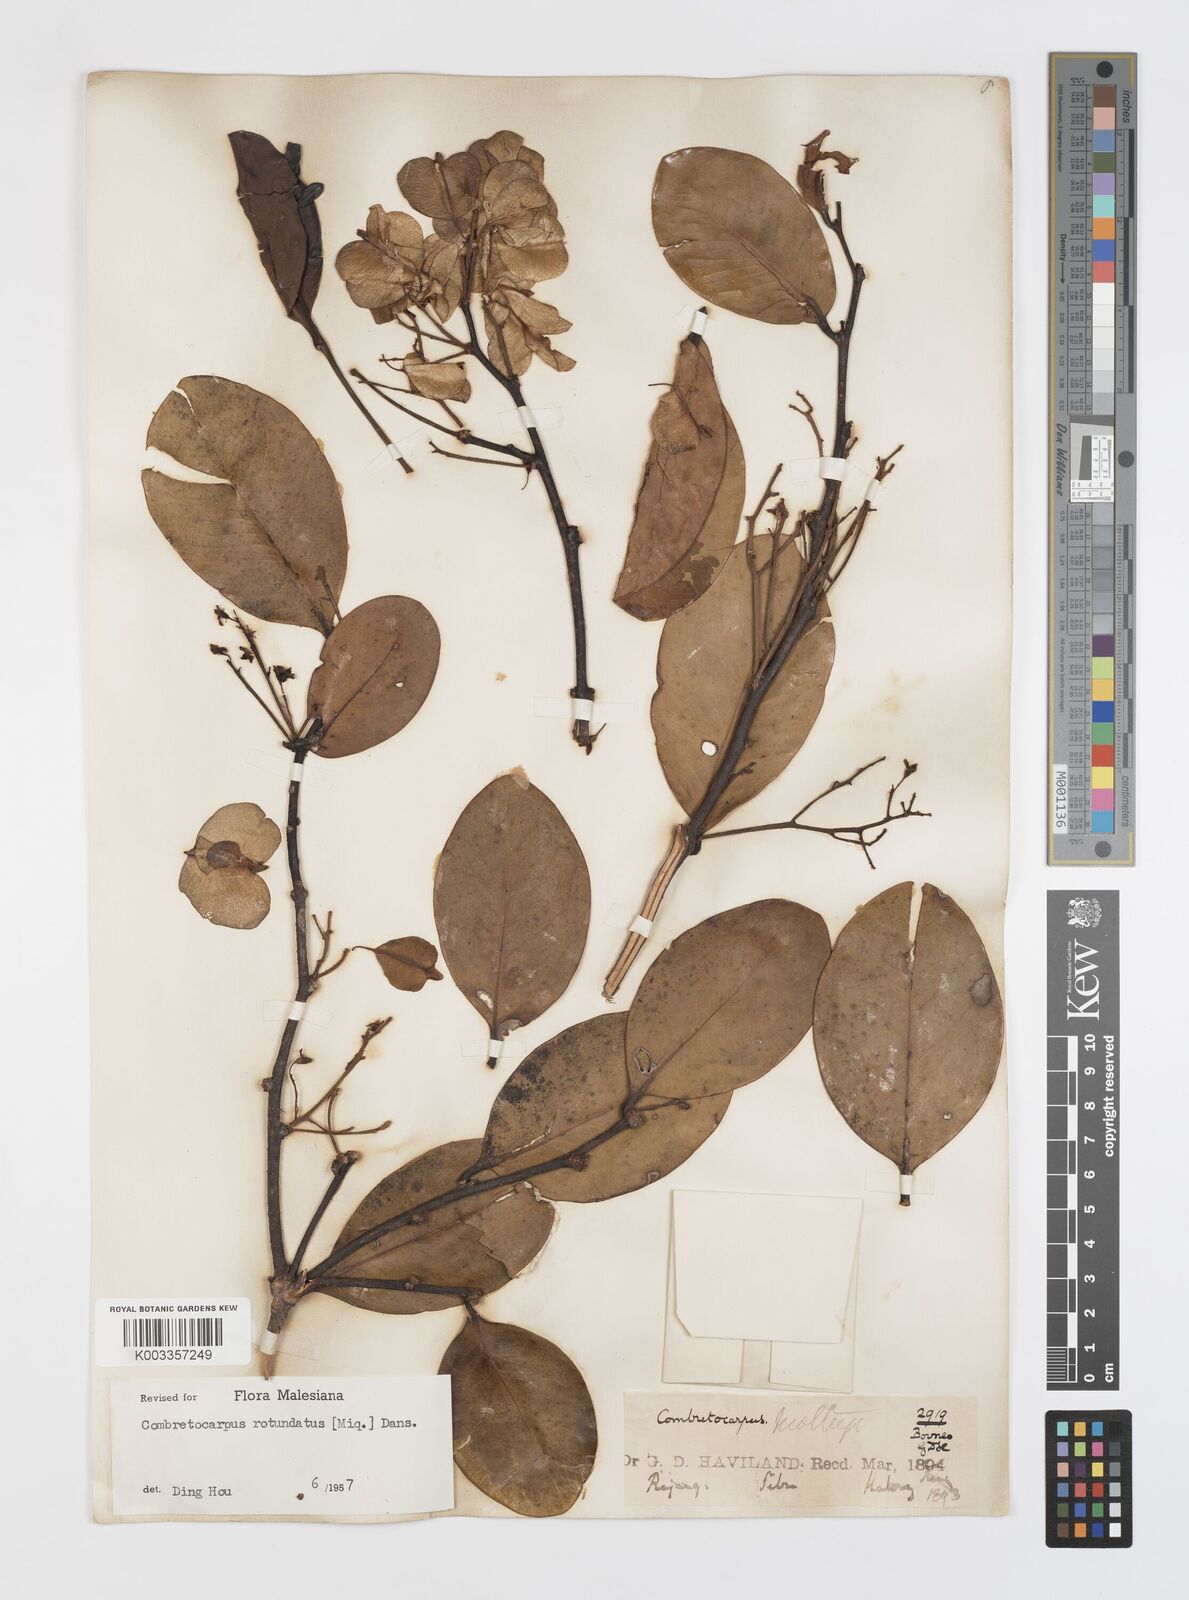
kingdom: Plantae
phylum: Tracheophyta
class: Magnoliopsida
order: Cucurbitales
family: Anisophylleaceae
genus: Combretocarpus
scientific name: Combretocarpus rotundatus
